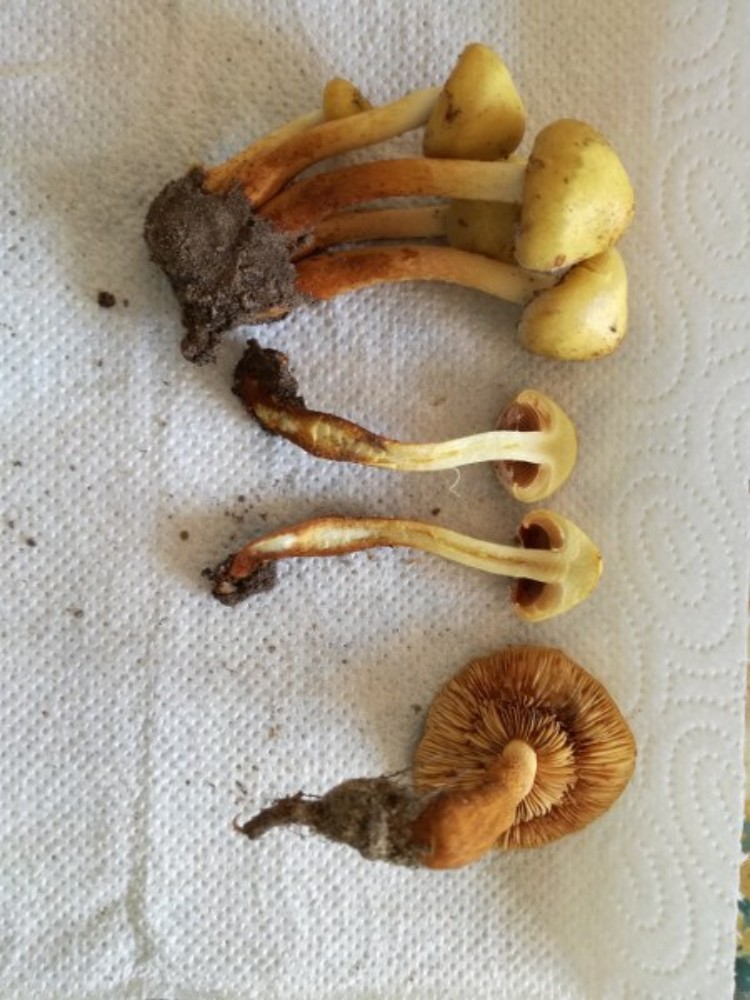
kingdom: Fungi
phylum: Basidiomycota
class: Agaricomycetes
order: Agaricales
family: Hymenogastraceae
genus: Flammula
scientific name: Flammula alnicola
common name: elle-skælhat
